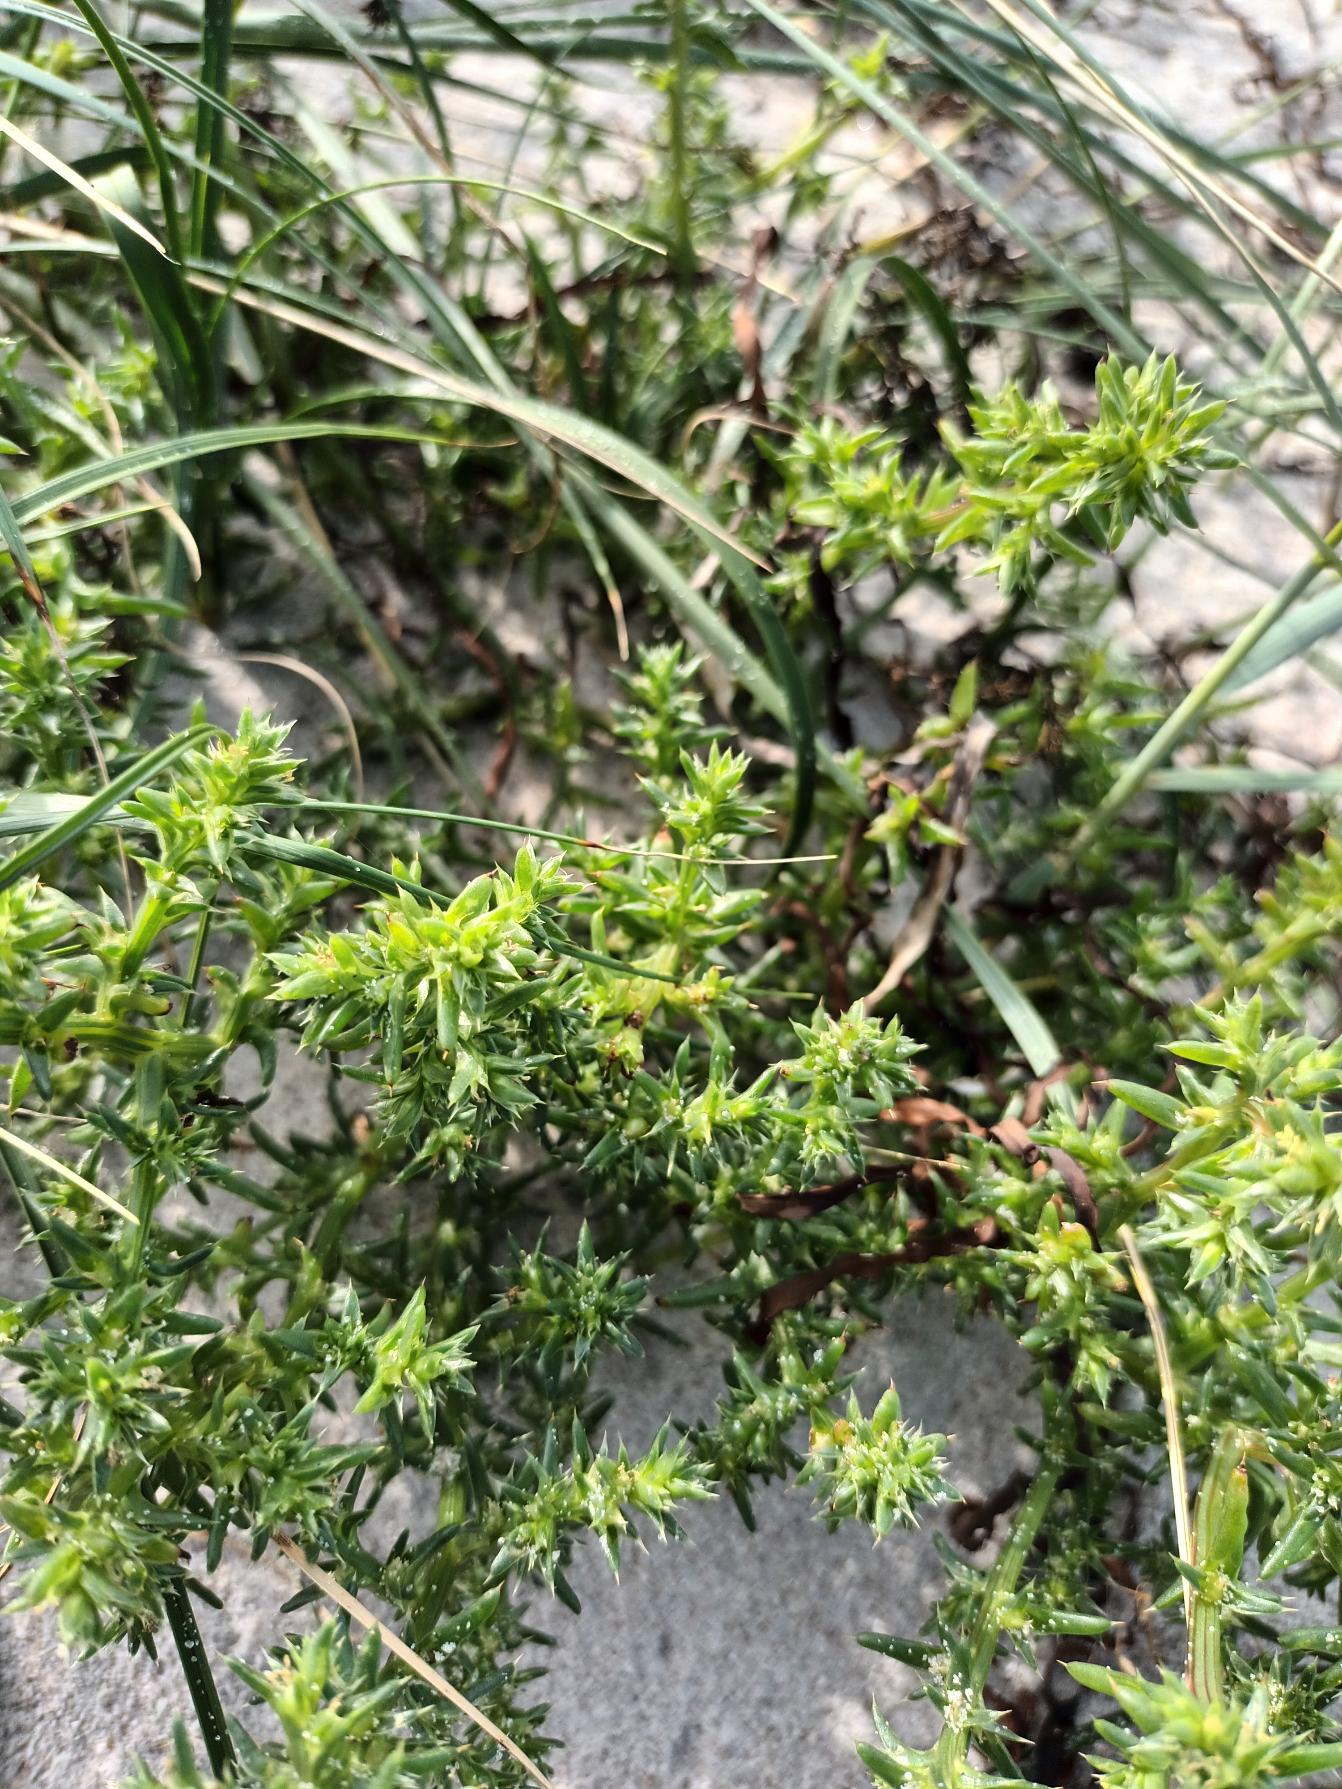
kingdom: Plantae
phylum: Tracheophyta
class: Magnoliopsida
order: Caryophyllales
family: Amaranthaceae
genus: Salsola
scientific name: Salsola kali
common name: Sodaurt
